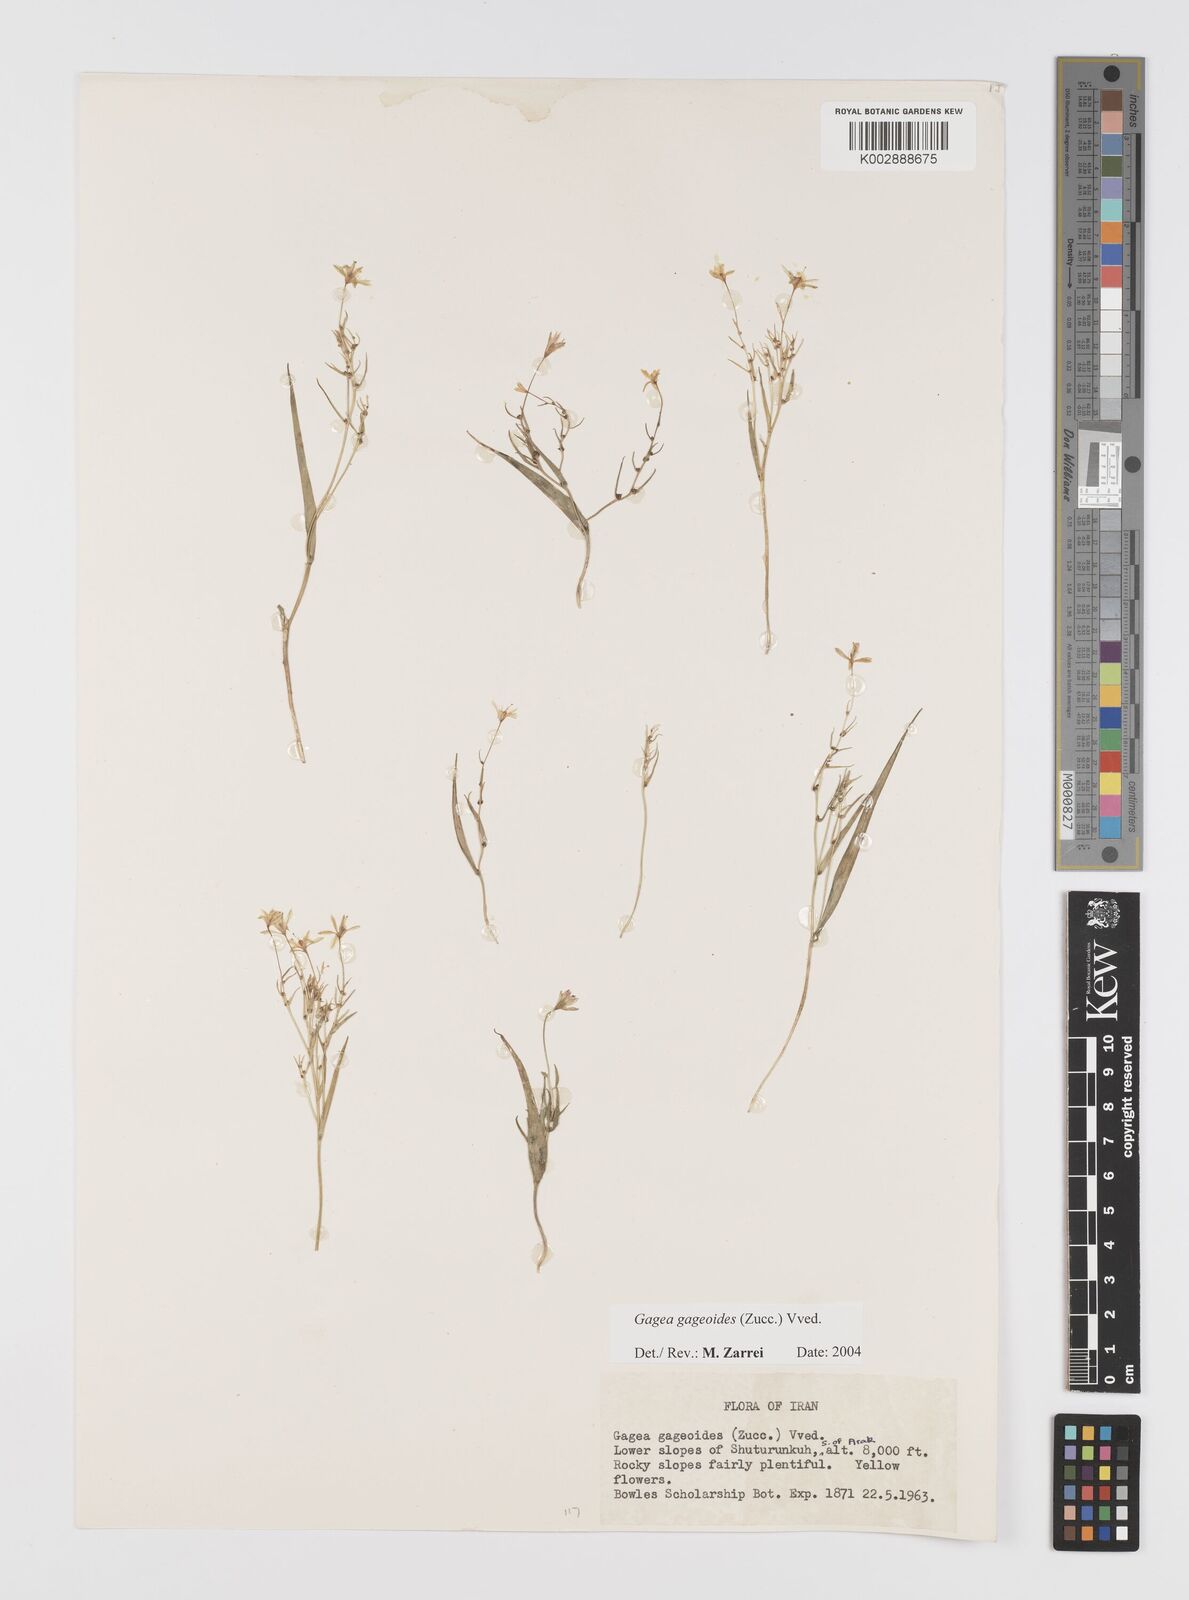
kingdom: Plantae
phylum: Tracheophyta
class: Liliopsida
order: Liliales
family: Liliaceae
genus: Gagea
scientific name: Gagea gageoides
